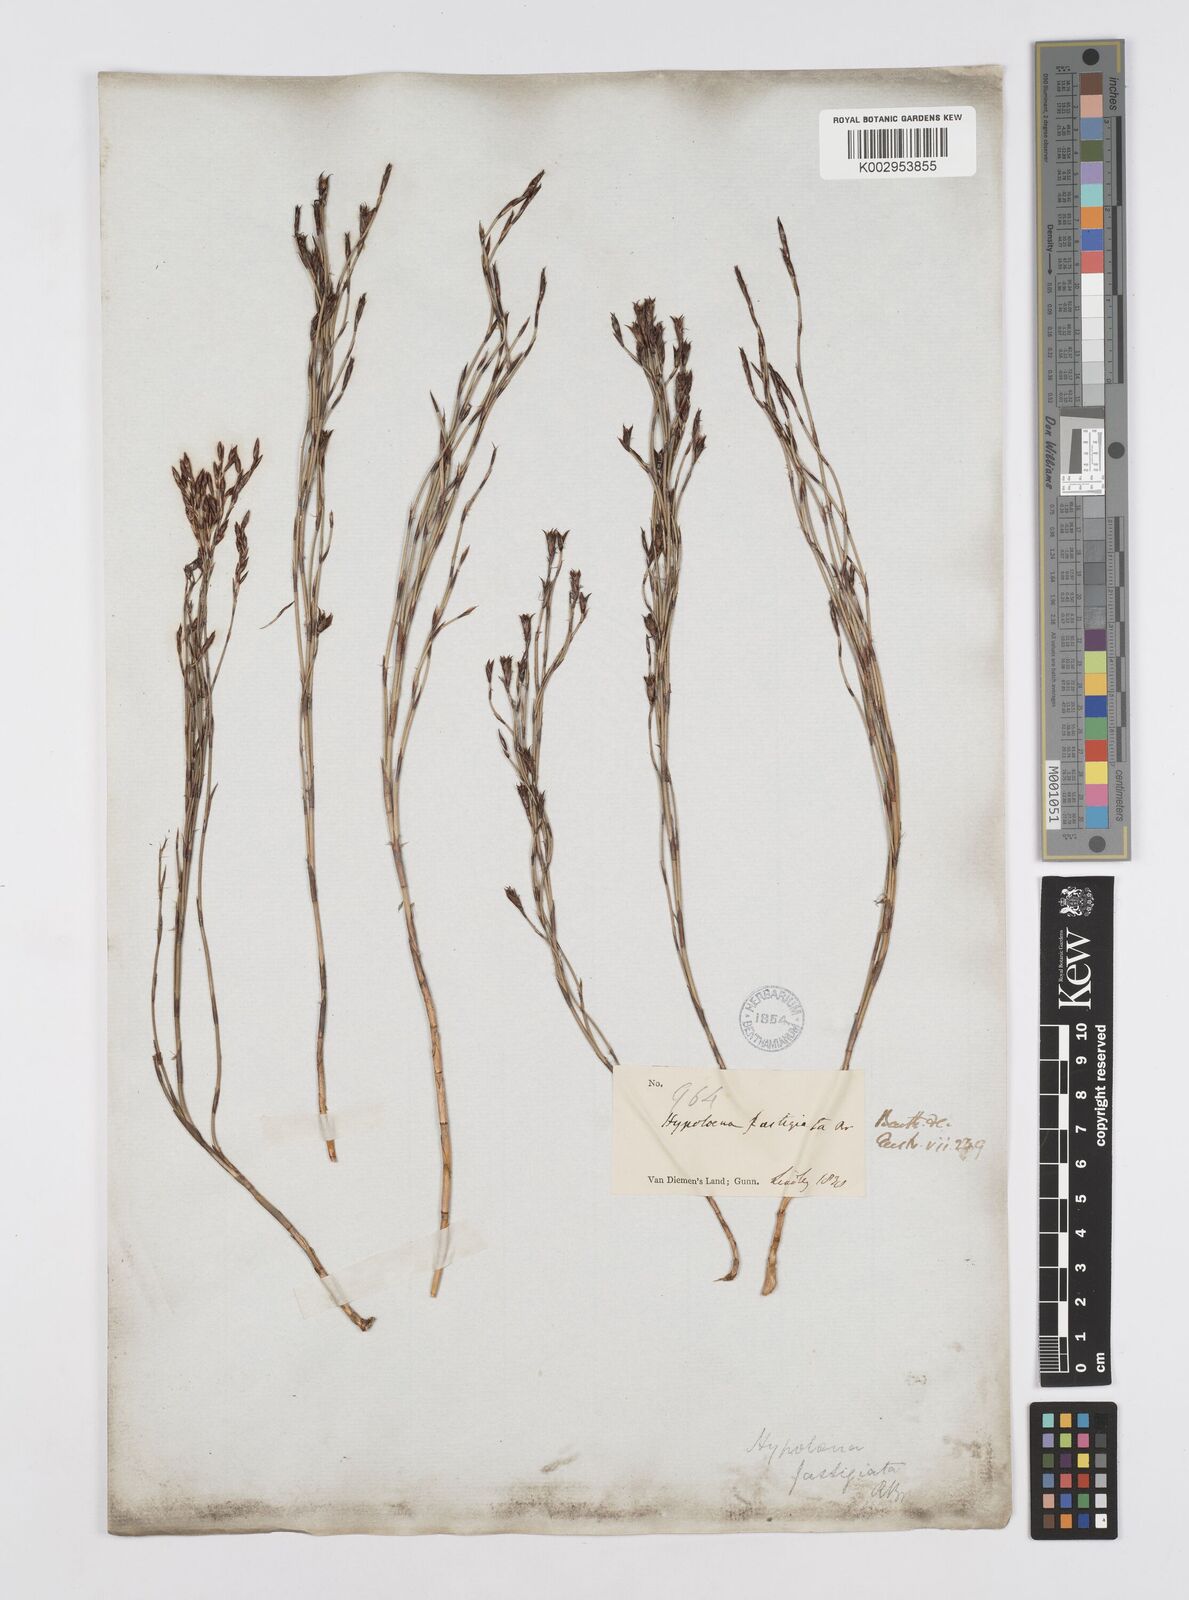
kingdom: Plantae
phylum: Tracheophyta
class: Liliopsida
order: Poales
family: Restionaceae
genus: Hypolaena
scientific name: Hypolaena fastigiata
